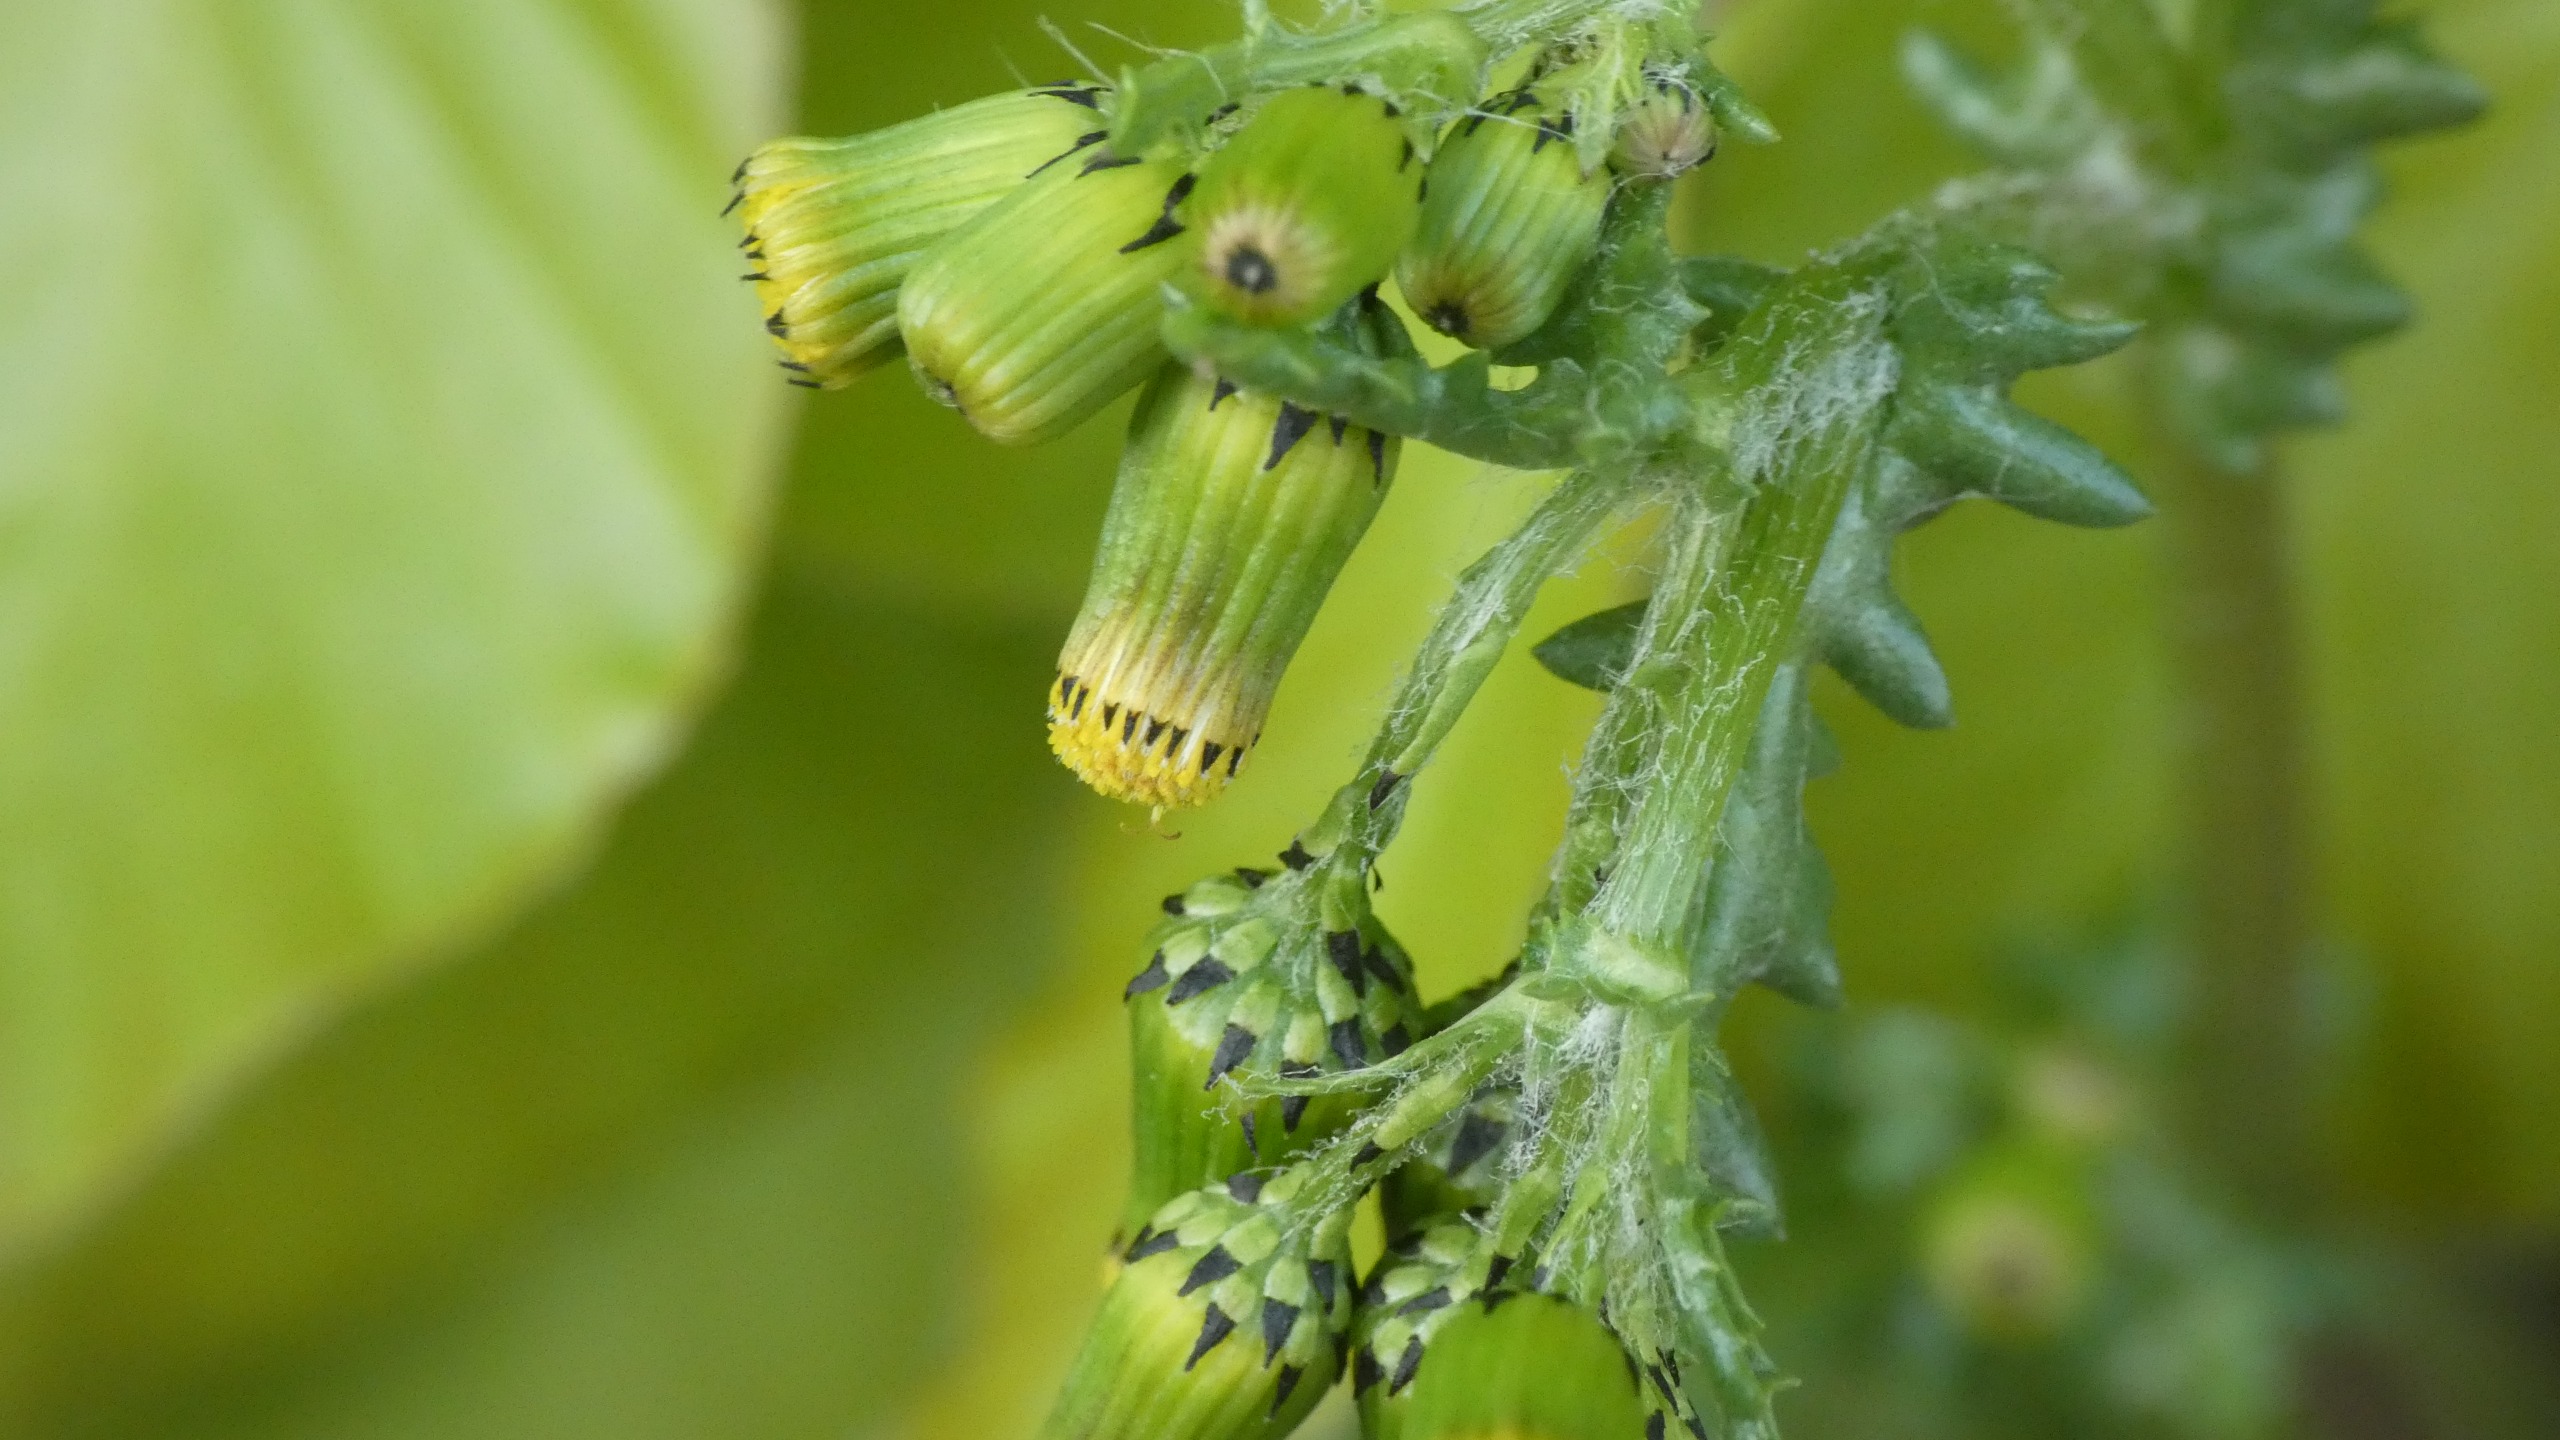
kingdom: Plantae
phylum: Tracheophyta
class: Magnoliopsida
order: Asterales
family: Asteraceae
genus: Senecio
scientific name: Senecio vulgaris
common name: Almindelig brandbæger
